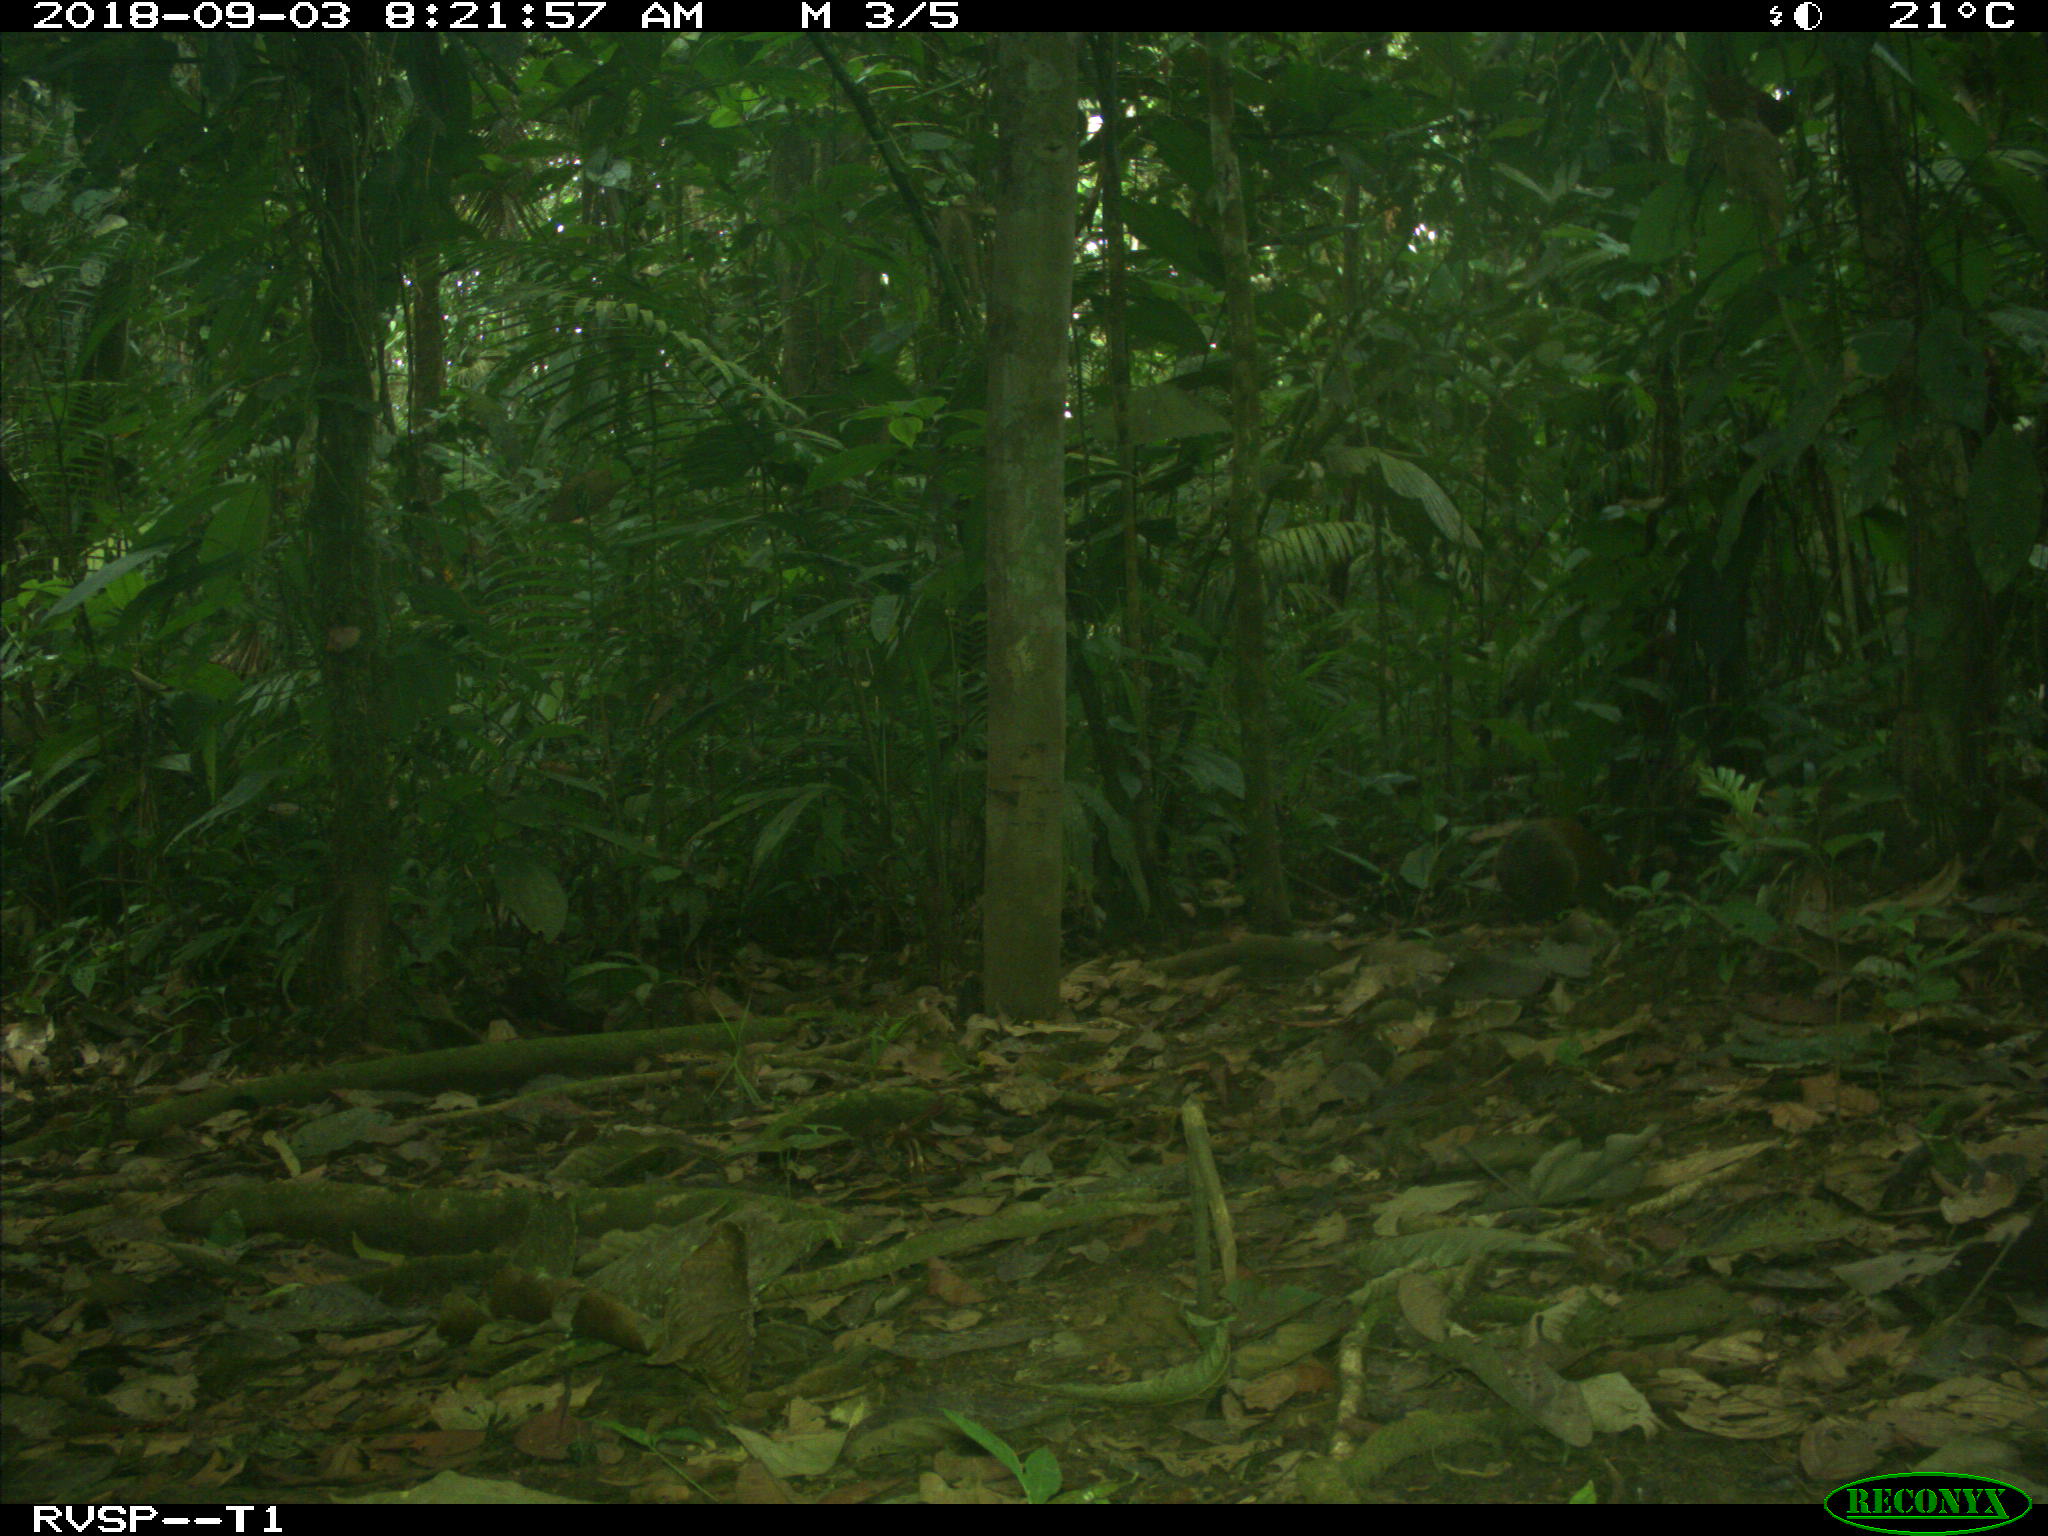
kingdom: Animalia
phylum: Chordata
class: Mammalia
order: Rodentia
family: Dasyproctidae
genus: Dasyprocta
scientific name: Dasyprocta punctata
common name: Central american agouti
